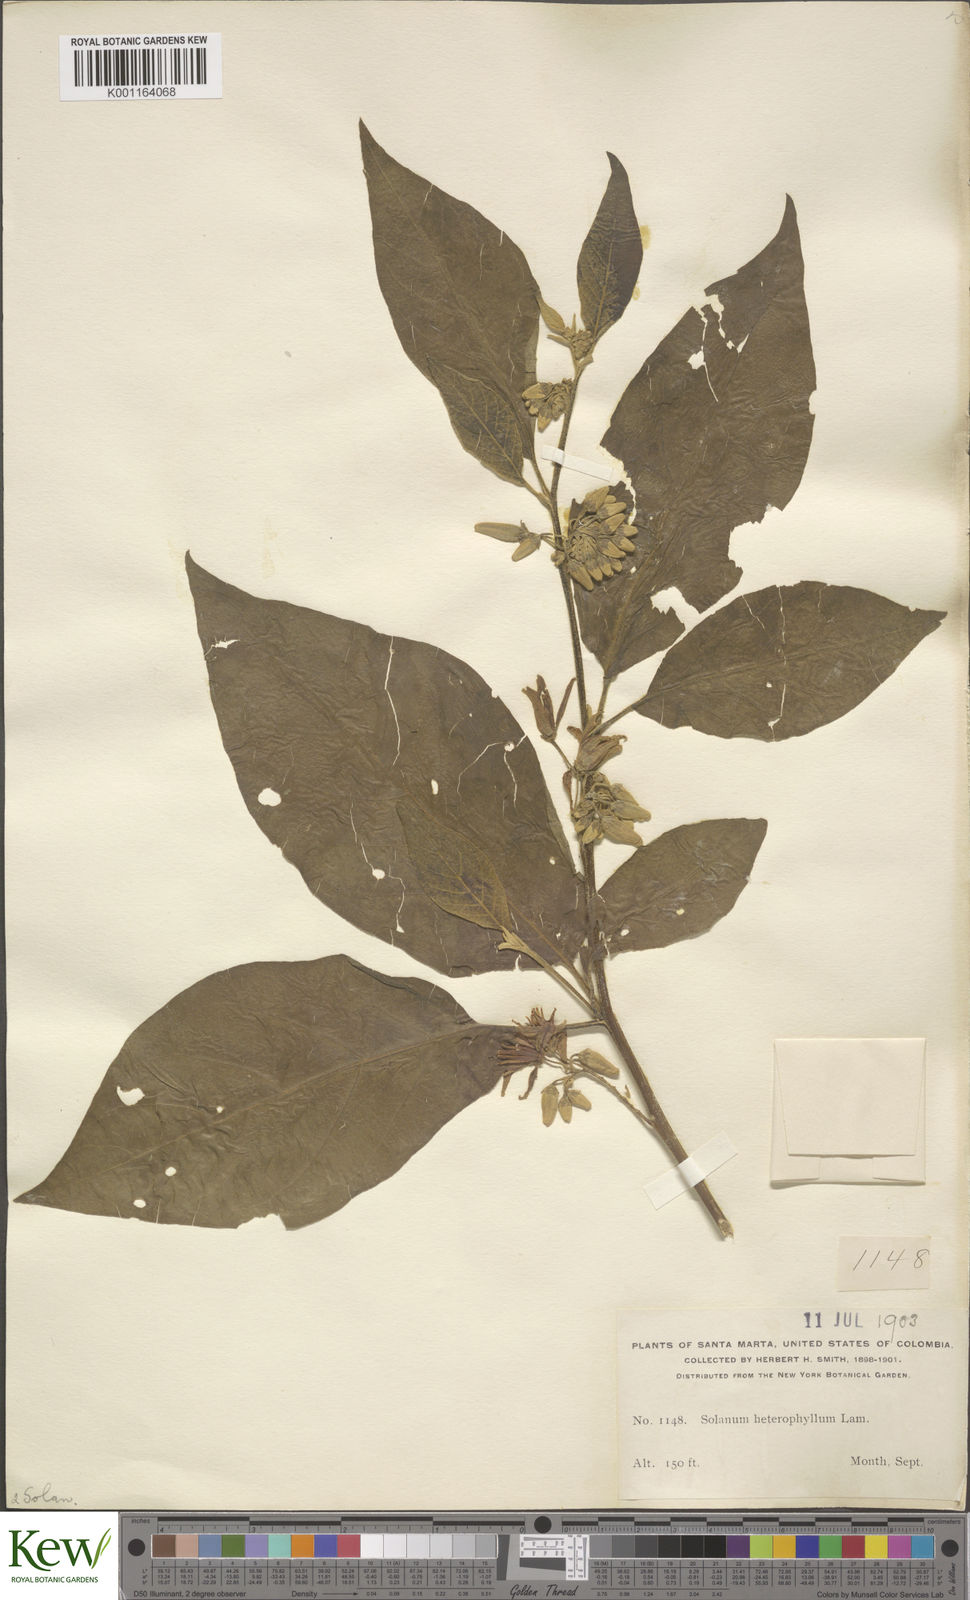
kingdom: Plantae
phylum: Tracheophyta
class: Magnoliopsida
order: Solanales
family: Solanaceae
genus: Solanum
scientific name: Solanum subinerme
